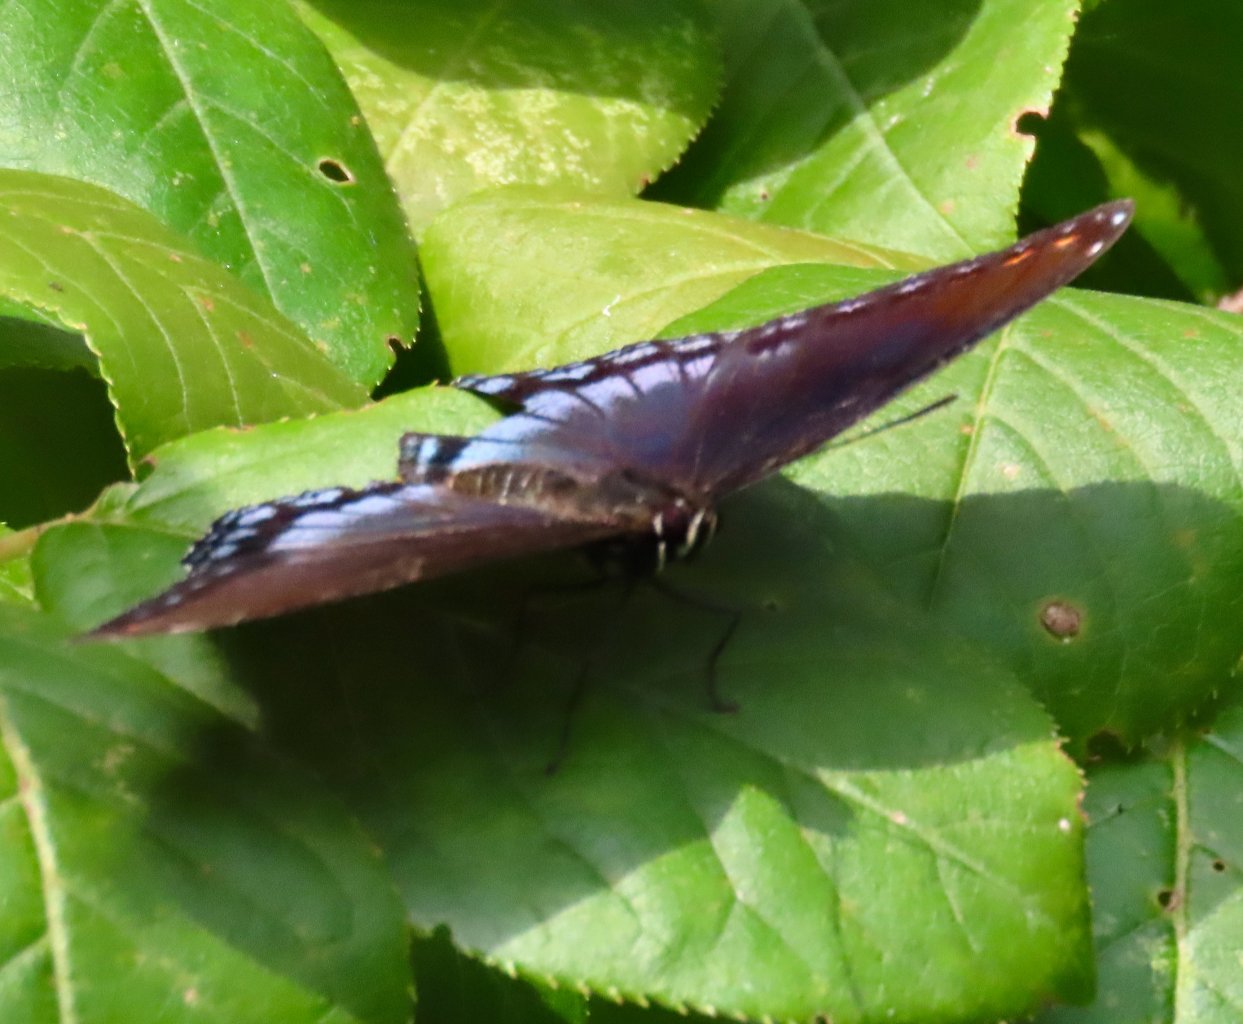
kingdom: Animalia
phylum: Arthropoda
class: Insecta
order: Lepidoptera
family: Nymphalidae
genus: Limenitis
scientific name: Limenitis astyanax
